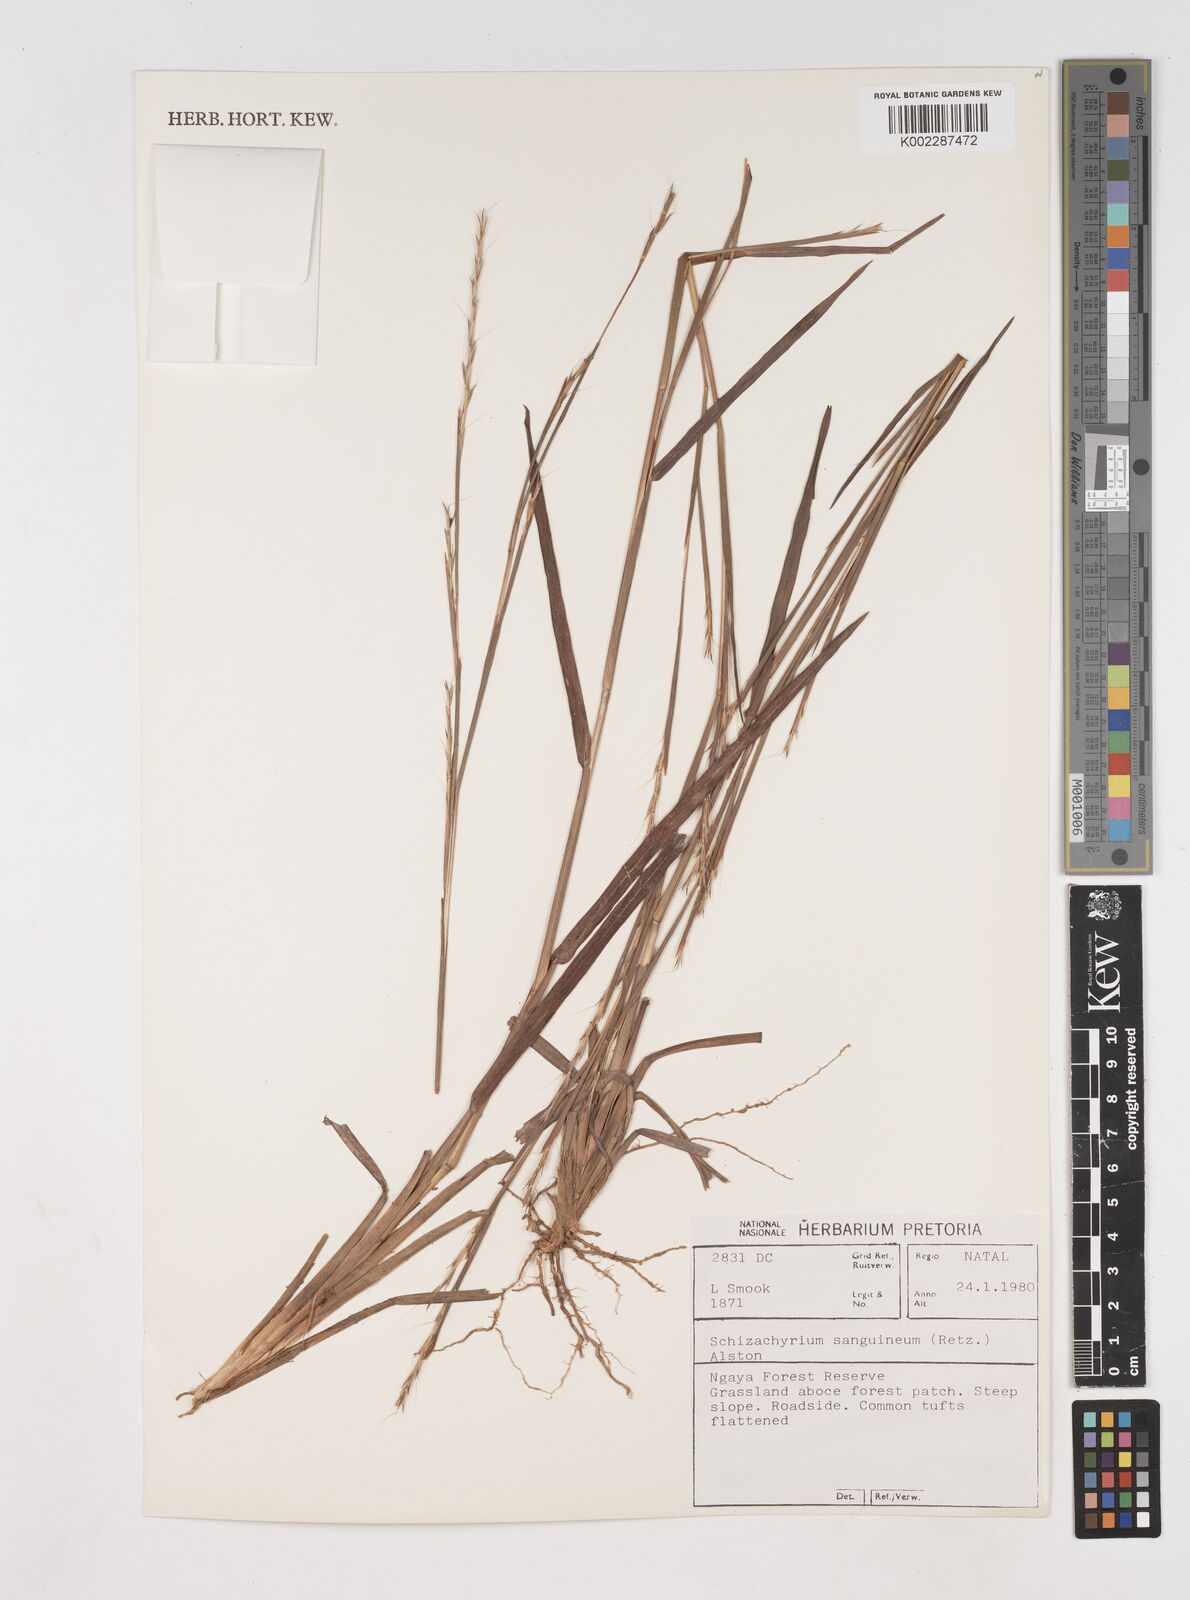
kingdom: Plantae
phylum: Tracheophyta
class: Liliopsida
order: Poales
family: Poaceae
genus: Schizachyrium
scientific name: Schizachyrium sanguineum
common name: Crimson bluestem
